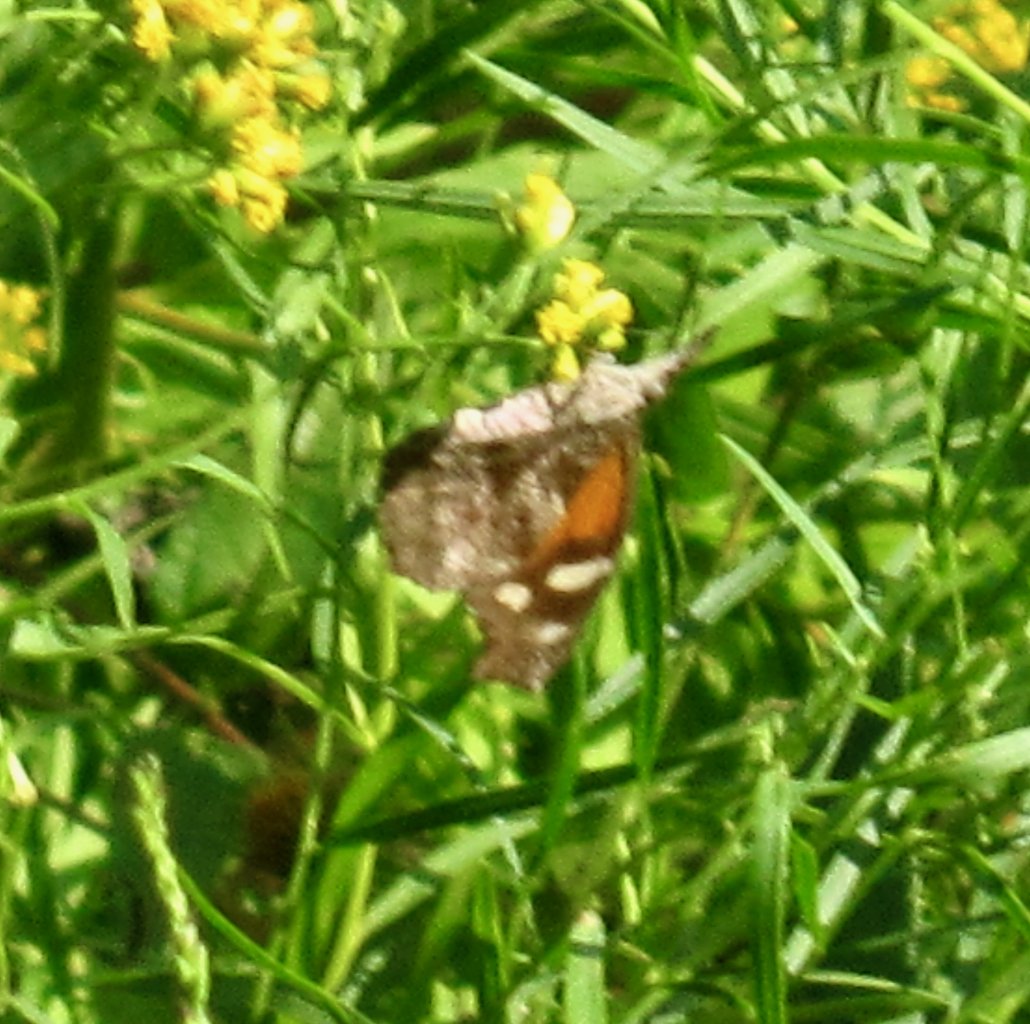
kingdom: Animalia
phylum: Arthropoda
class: Insecta
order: Lepidoptera
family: Nymphalidae
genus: Libytheana
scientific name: Libytheana carinenta
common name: American Snout
